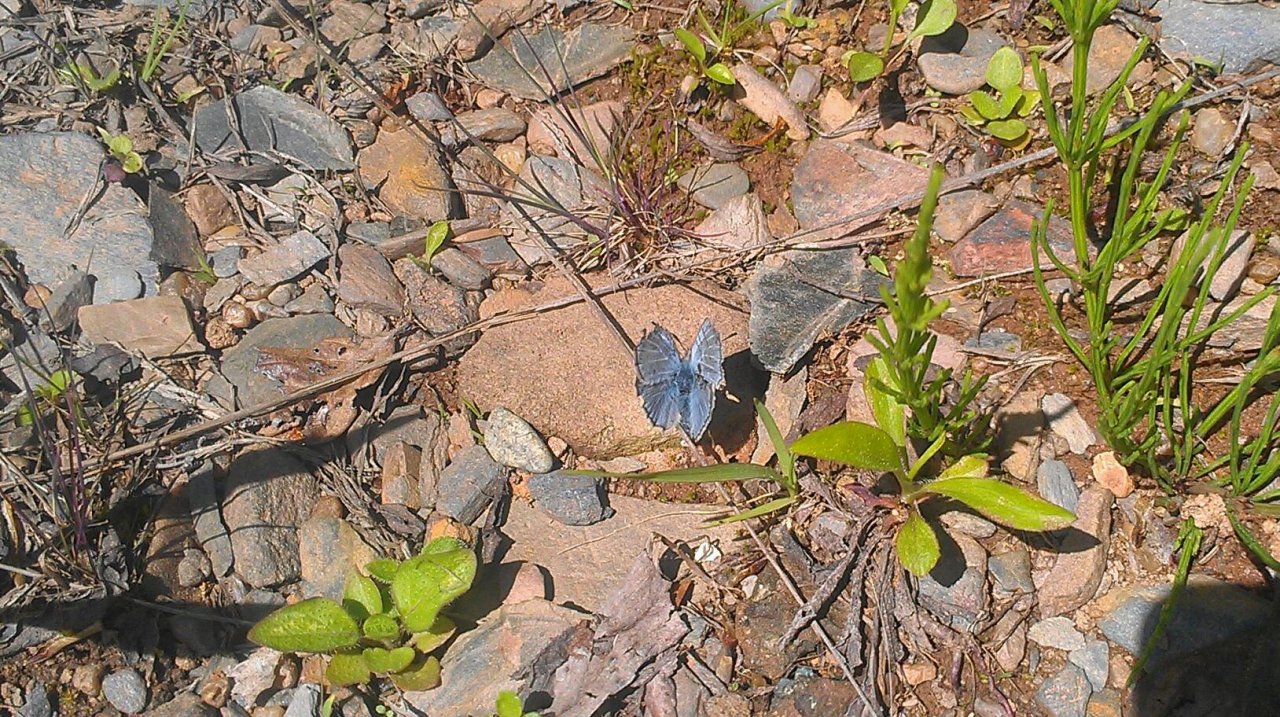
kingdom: Animalia
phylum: Arthropoda
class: Insecta
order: Lepidoptera
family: Lycaenidae
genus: Glaucopsyche
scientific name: Glaucopsyche lygdamus
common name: Silvery Blue
